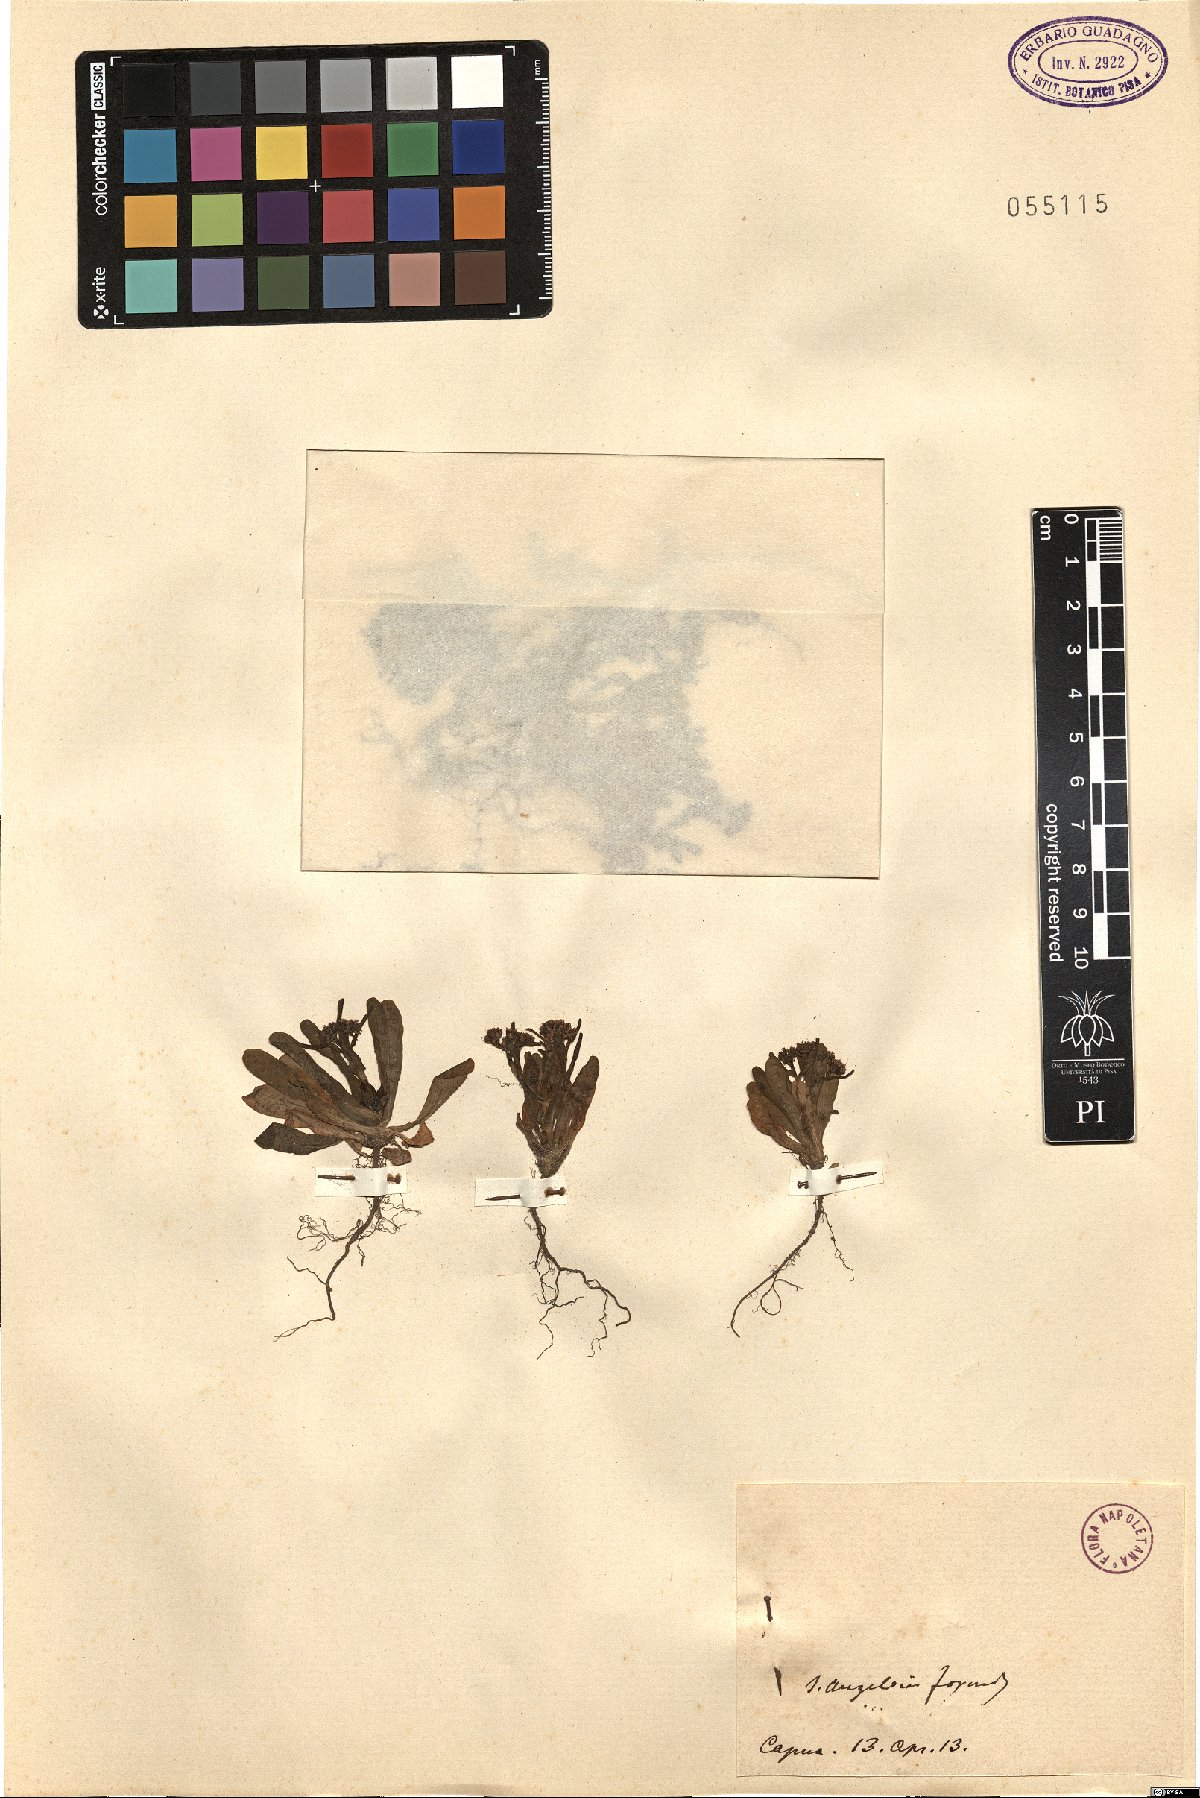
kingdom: Plantae
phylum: Tracheophyta
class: Magnoliopsida
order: Dipsacales
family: Caprifoliaceae
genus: Valerianella
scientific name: Valerianella
